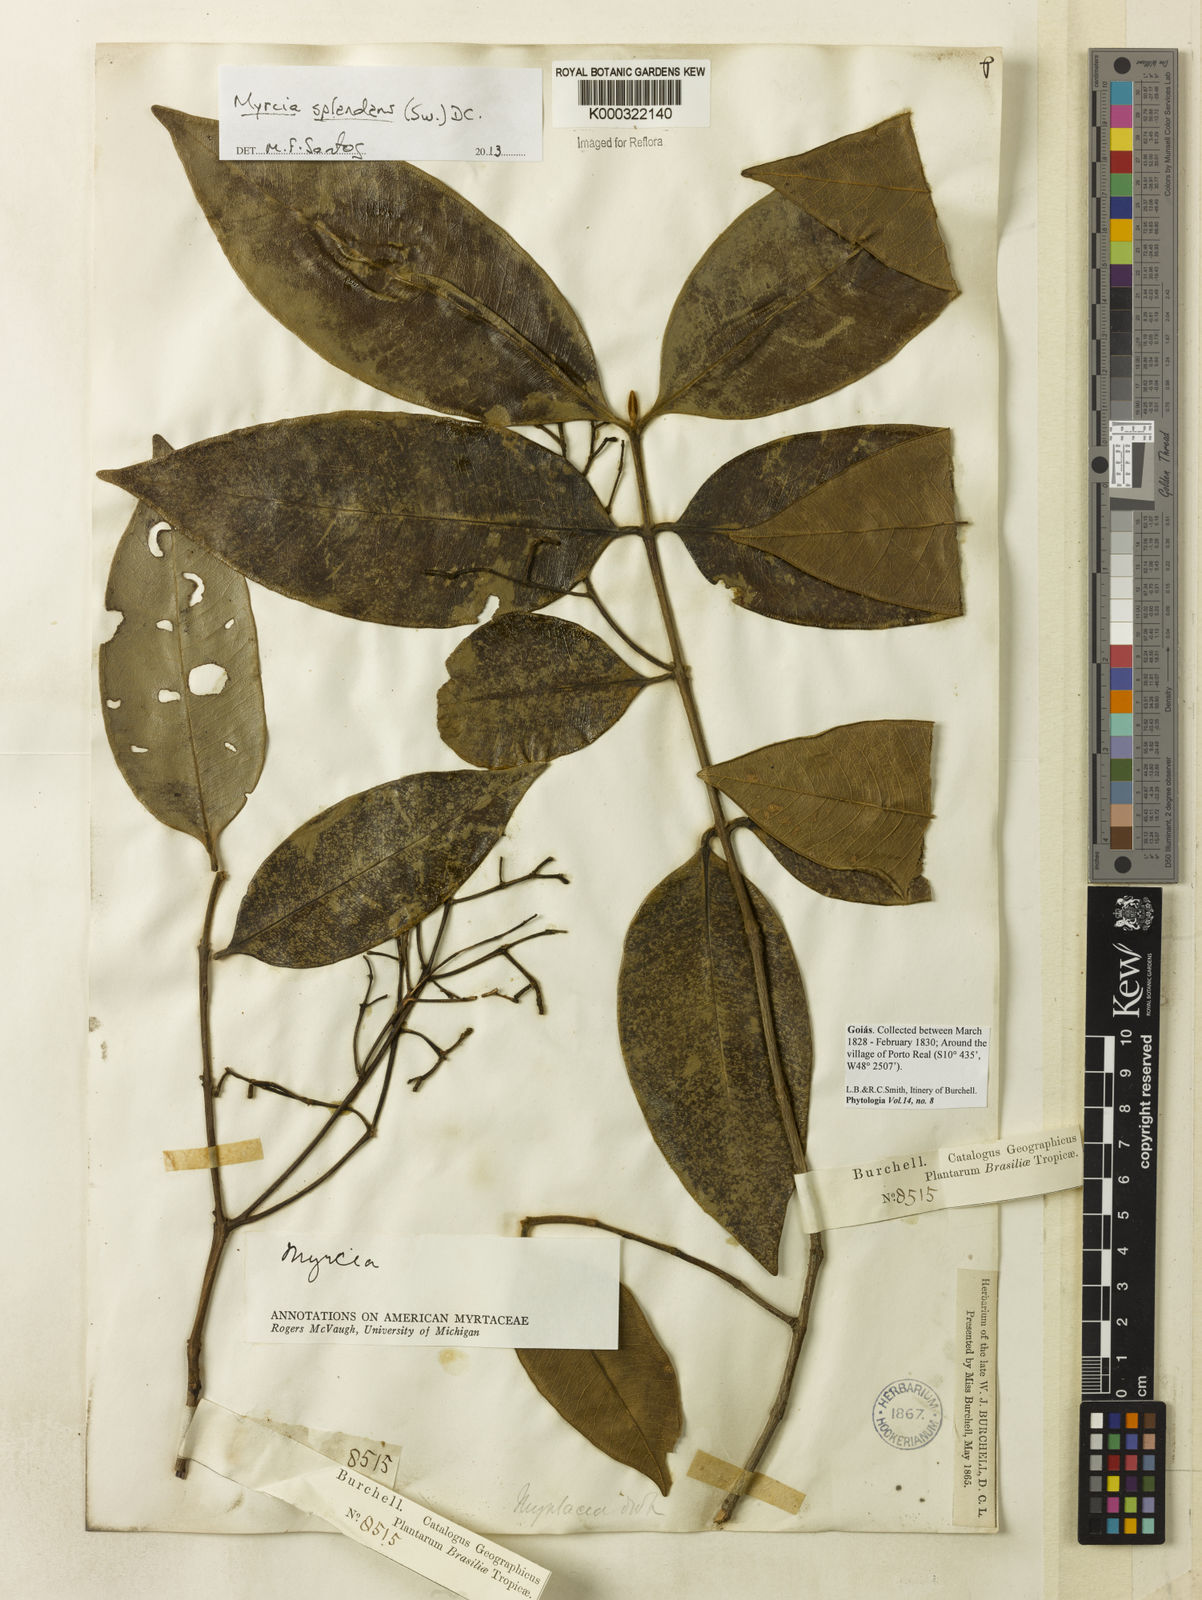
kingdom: Plantae
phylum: Tracheophyta
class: Magnoliopsida
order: Myrtales
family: Myrtaceae
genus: Myrcia
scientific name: Myrcia
